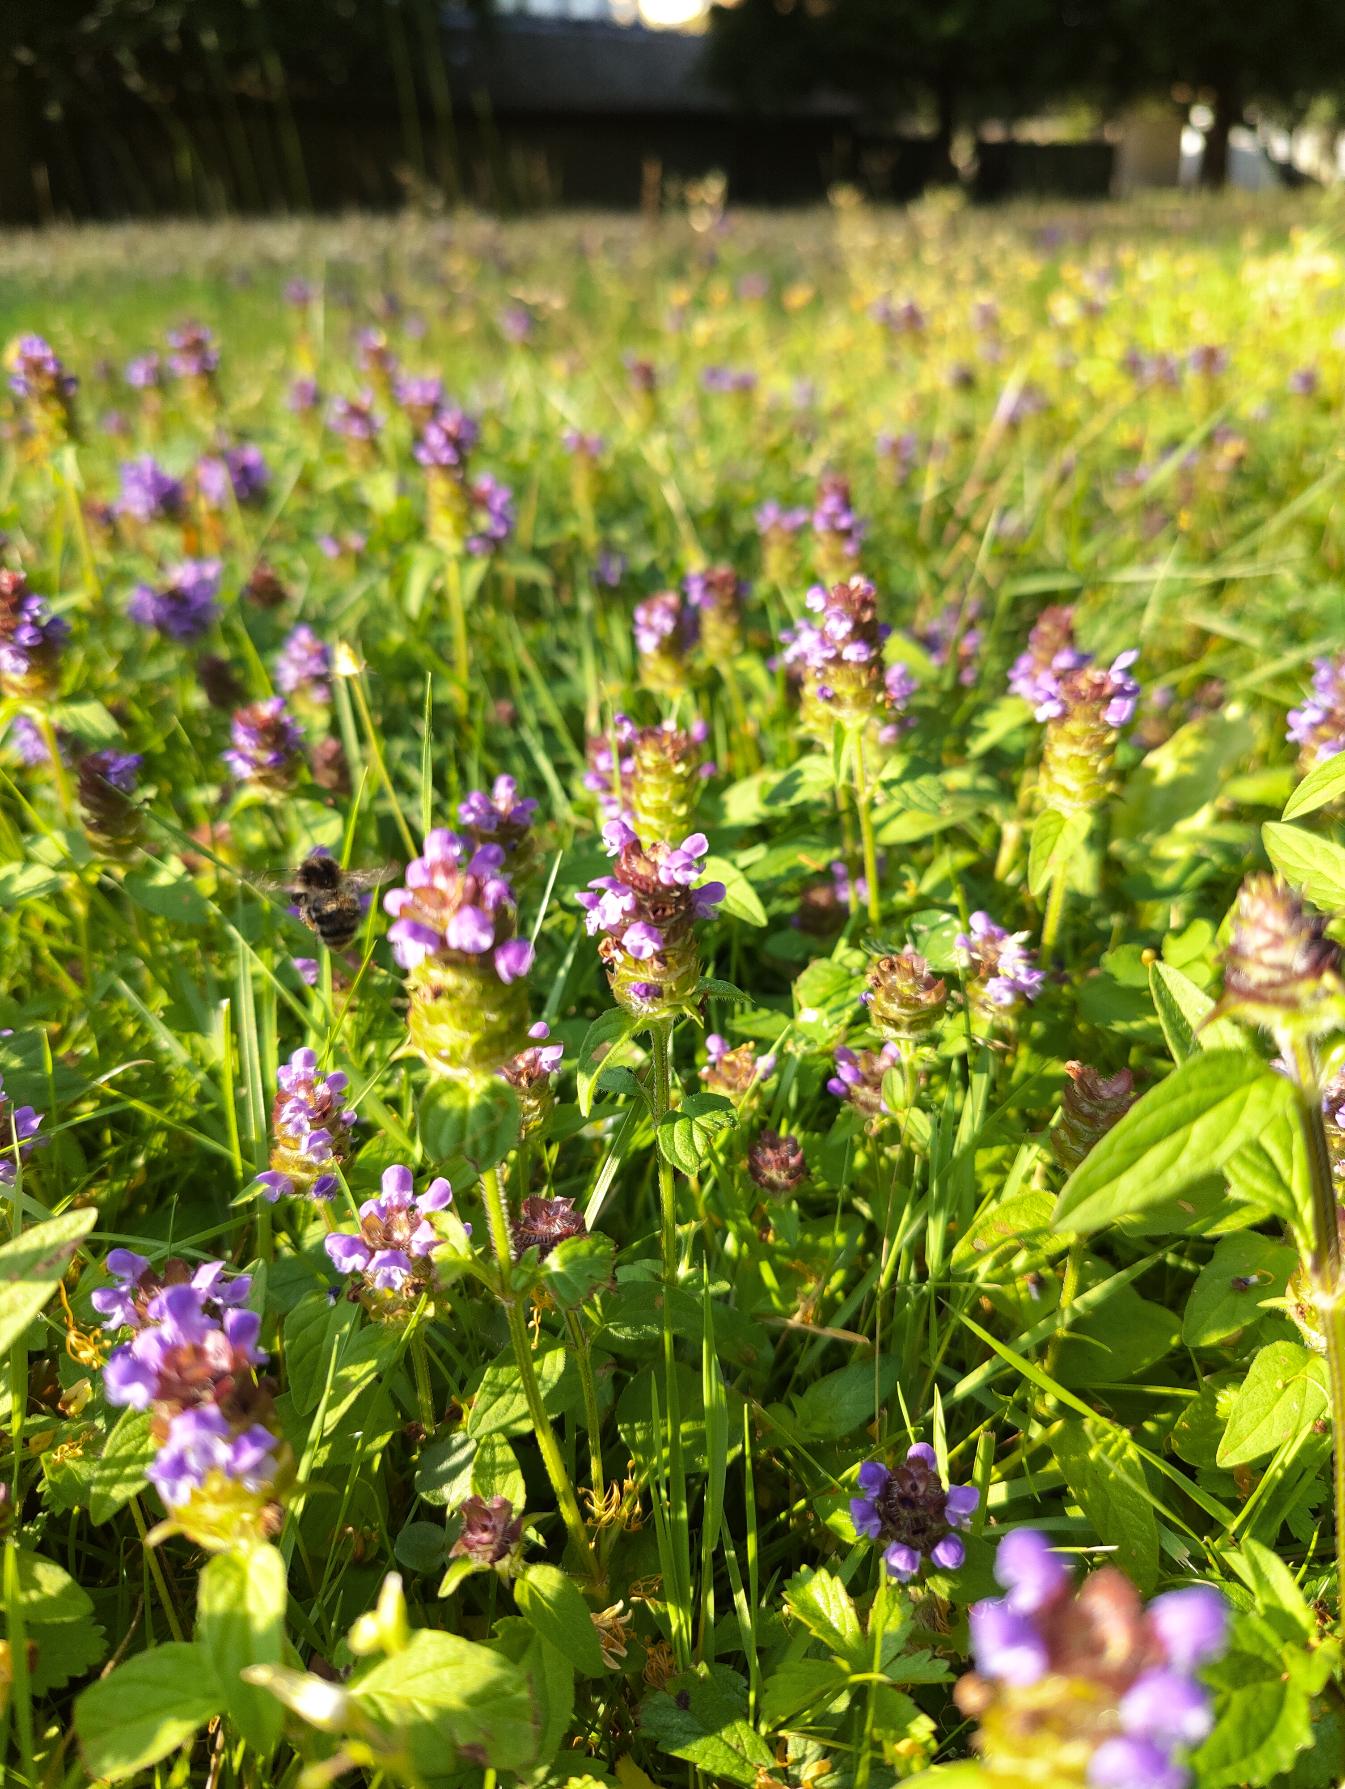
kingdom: Plantae
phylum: Tracheophyta
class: Magnoliopsida
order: Lamiales
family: Lamiaceae
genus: Prunella
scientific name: Prunella vulgaris
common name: Almindelig brunelle
